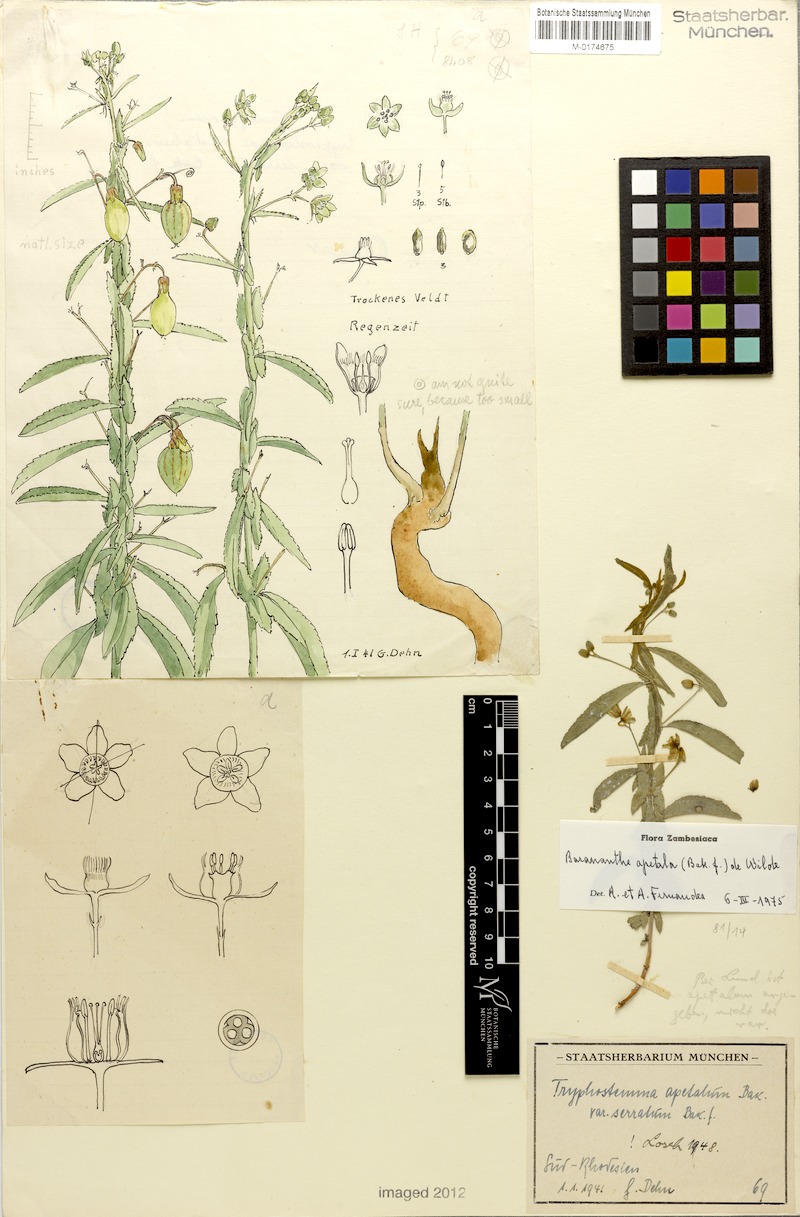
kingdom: Plantae
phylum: Tracheophyta
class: Magnoliopsida
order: Malpighiales
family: Passifloraceae
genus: Basananthe
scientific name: Basananthe apetala
